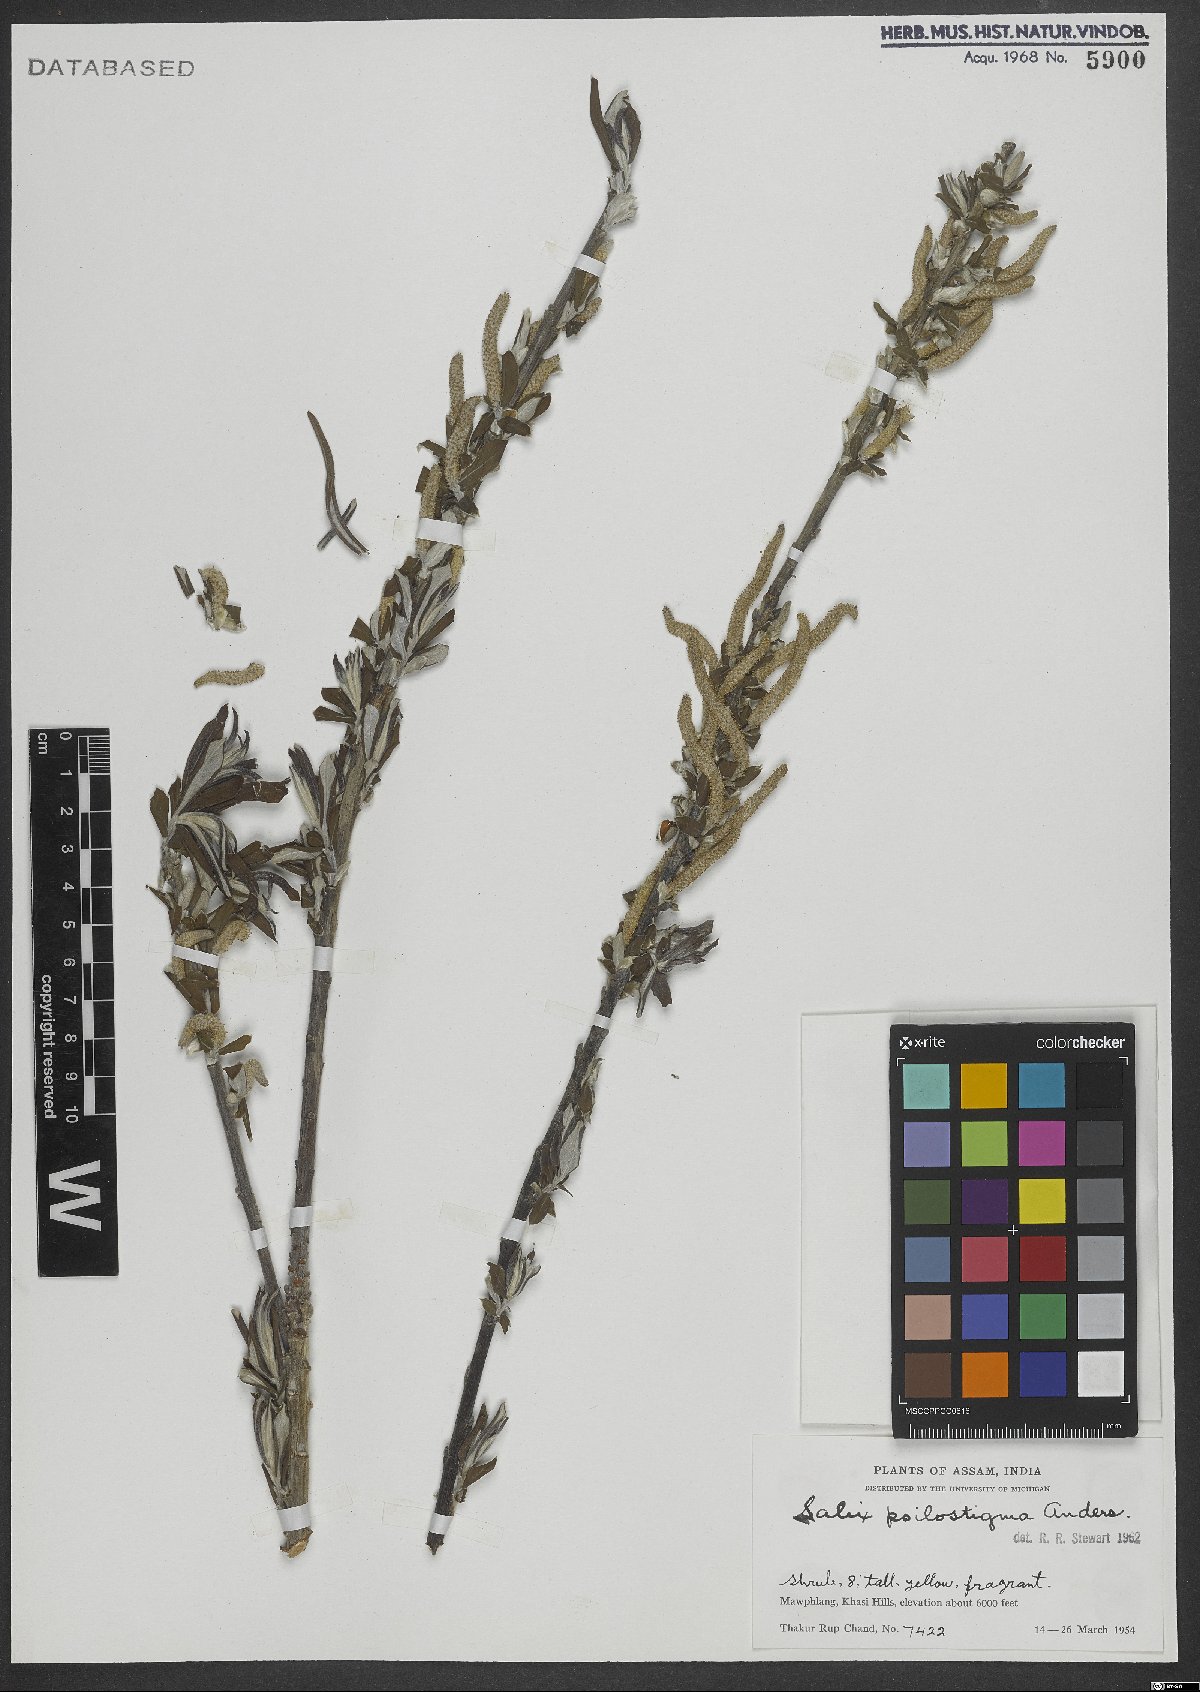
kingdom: Plantae
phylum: Tracheophyta
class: Magnoliopsida
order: Malpighiales
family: Salicaceae
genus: Salix
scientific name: Salix psilostigma
